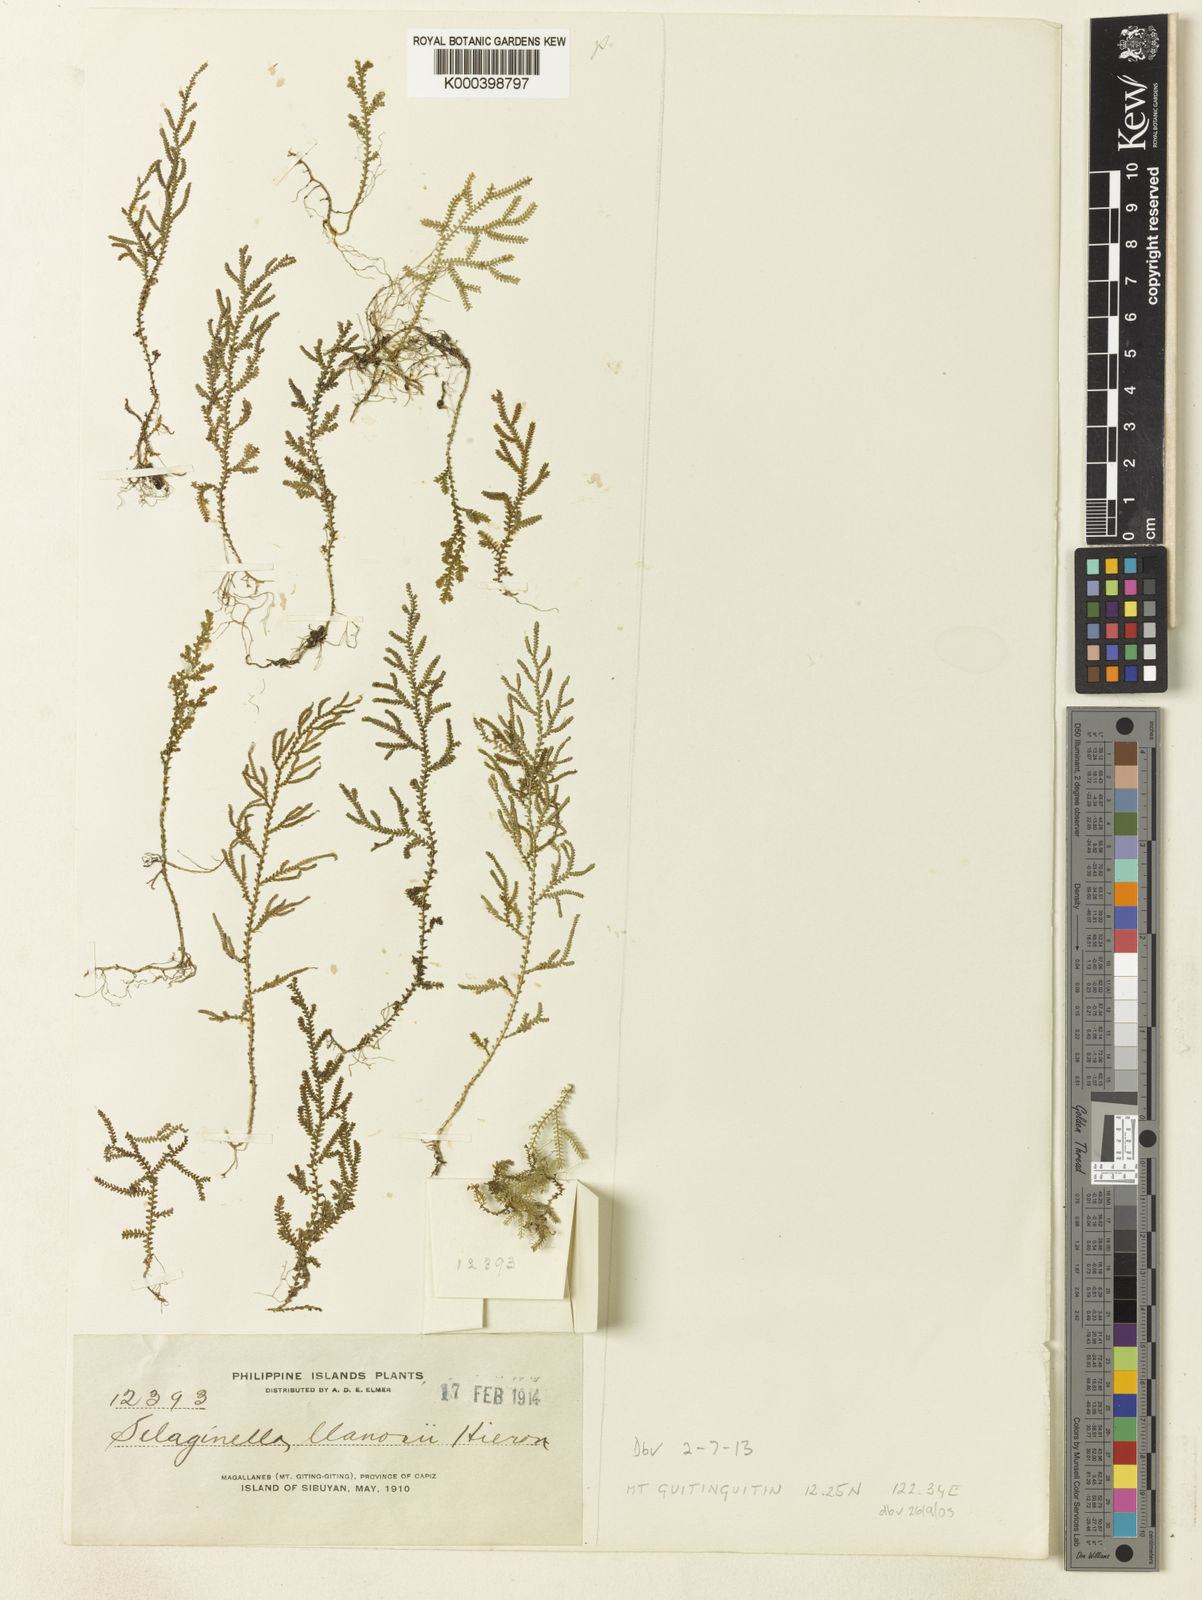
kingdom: Plantae
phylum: Tracheophyta
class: Lycopodiopsida
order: Selaginellales
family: Selaginellaceae
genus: Selaginella
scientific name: Selaginella llanosii
